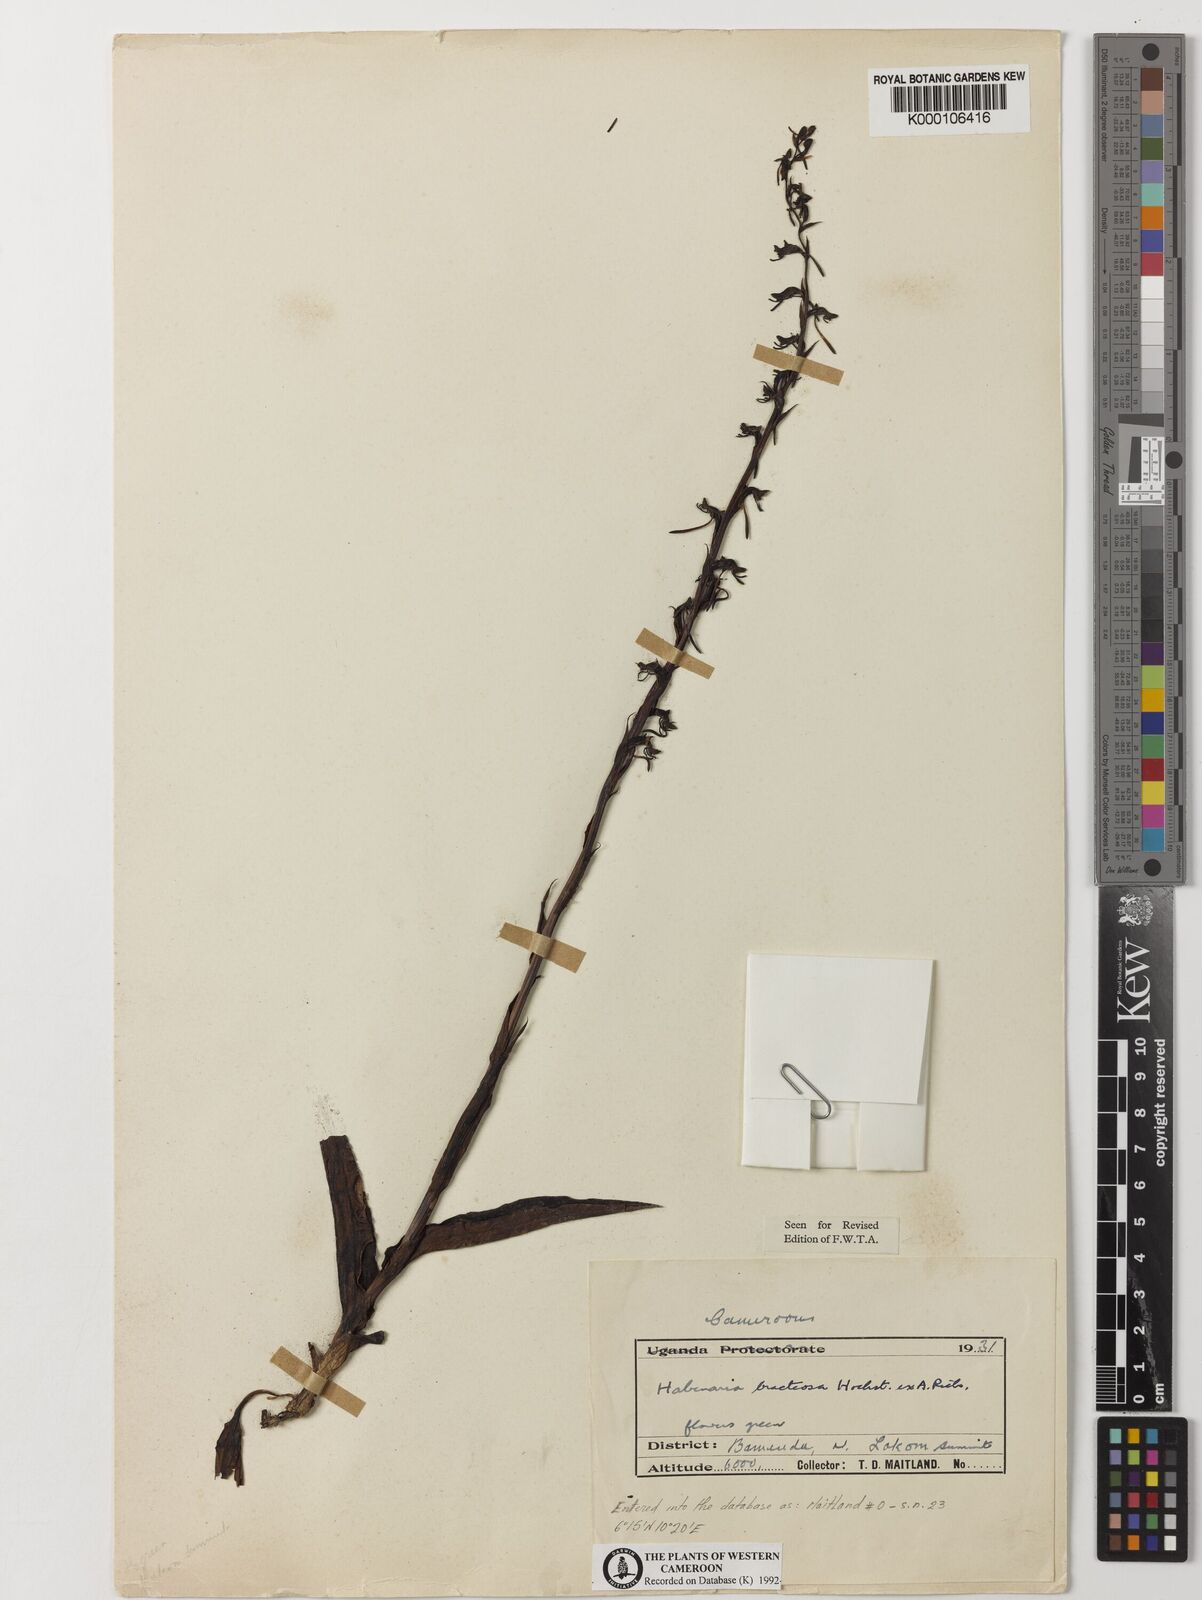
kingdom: Plantae
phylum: Tracheophyta
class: Liliopsida
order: Asparagales
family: Orchidaceae
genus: Habenaria
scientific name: Habenaria bracteosa
